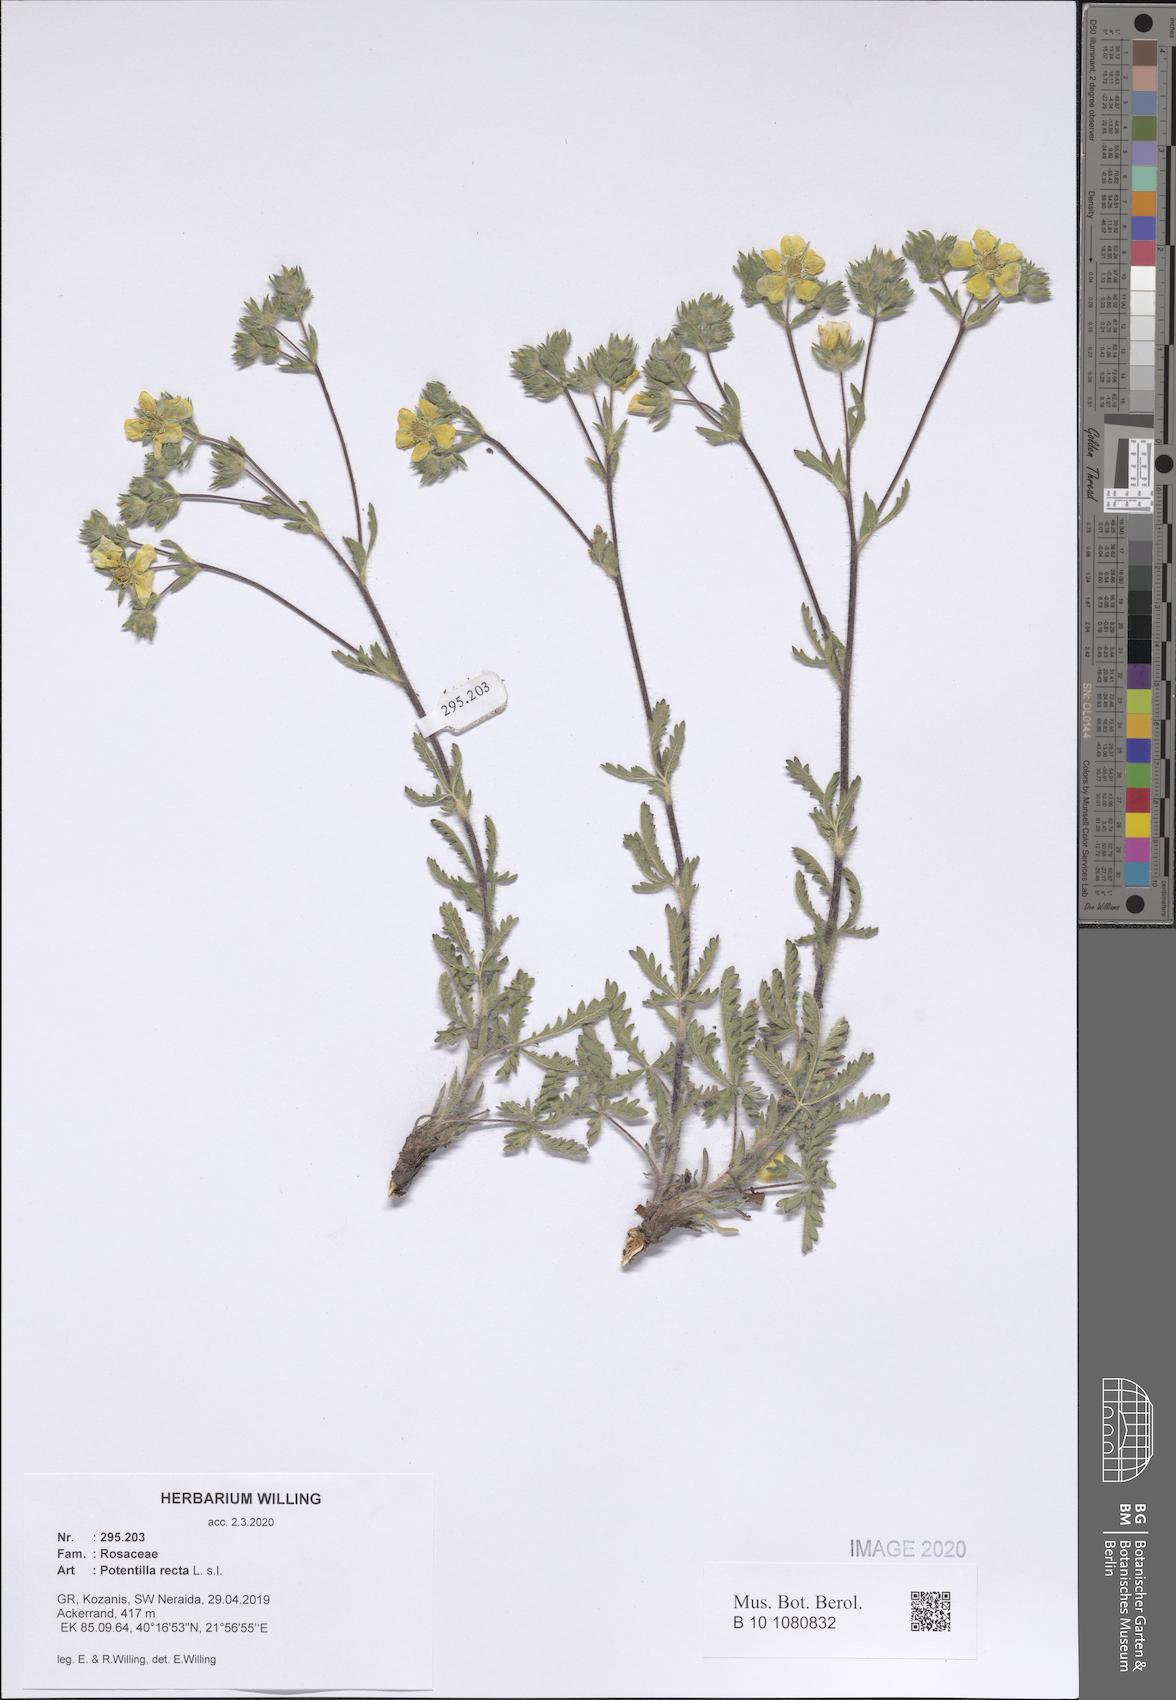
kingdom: Plantae
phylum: Tracheophyta
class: Magnoliopsida
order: Rosales
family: Rosaceae
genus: Potentilla
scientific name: Potentilla recta
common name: Sulphur cinquefoil
